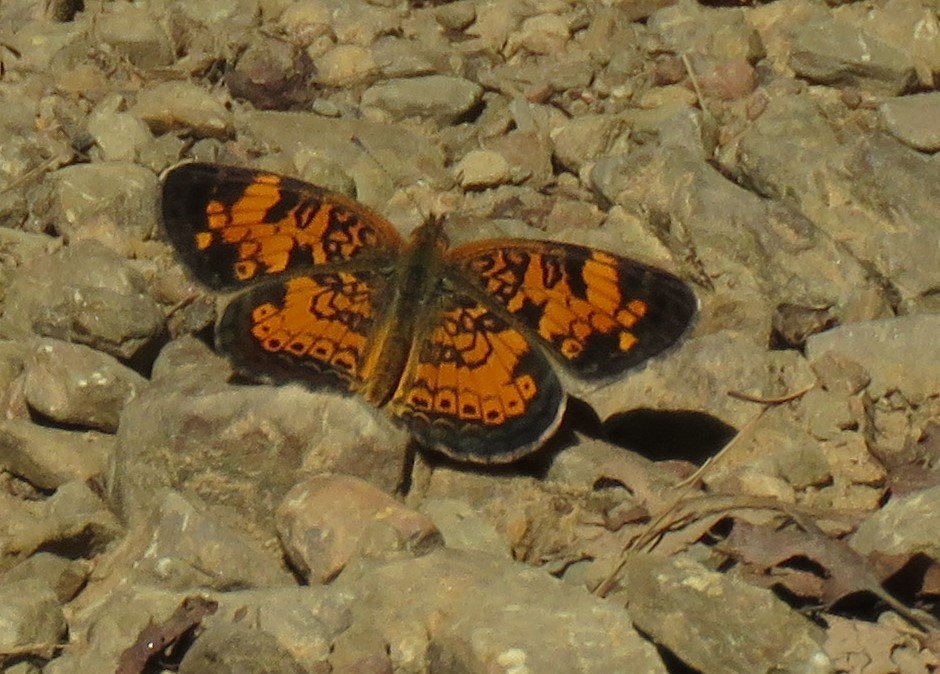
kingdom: Animalia
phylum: Arthropoda
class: Insecta
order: Lepidoptera
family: Nymphalidae
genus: Phyciodes
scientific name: Phyciodes tharos
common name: Pearl Crescent
